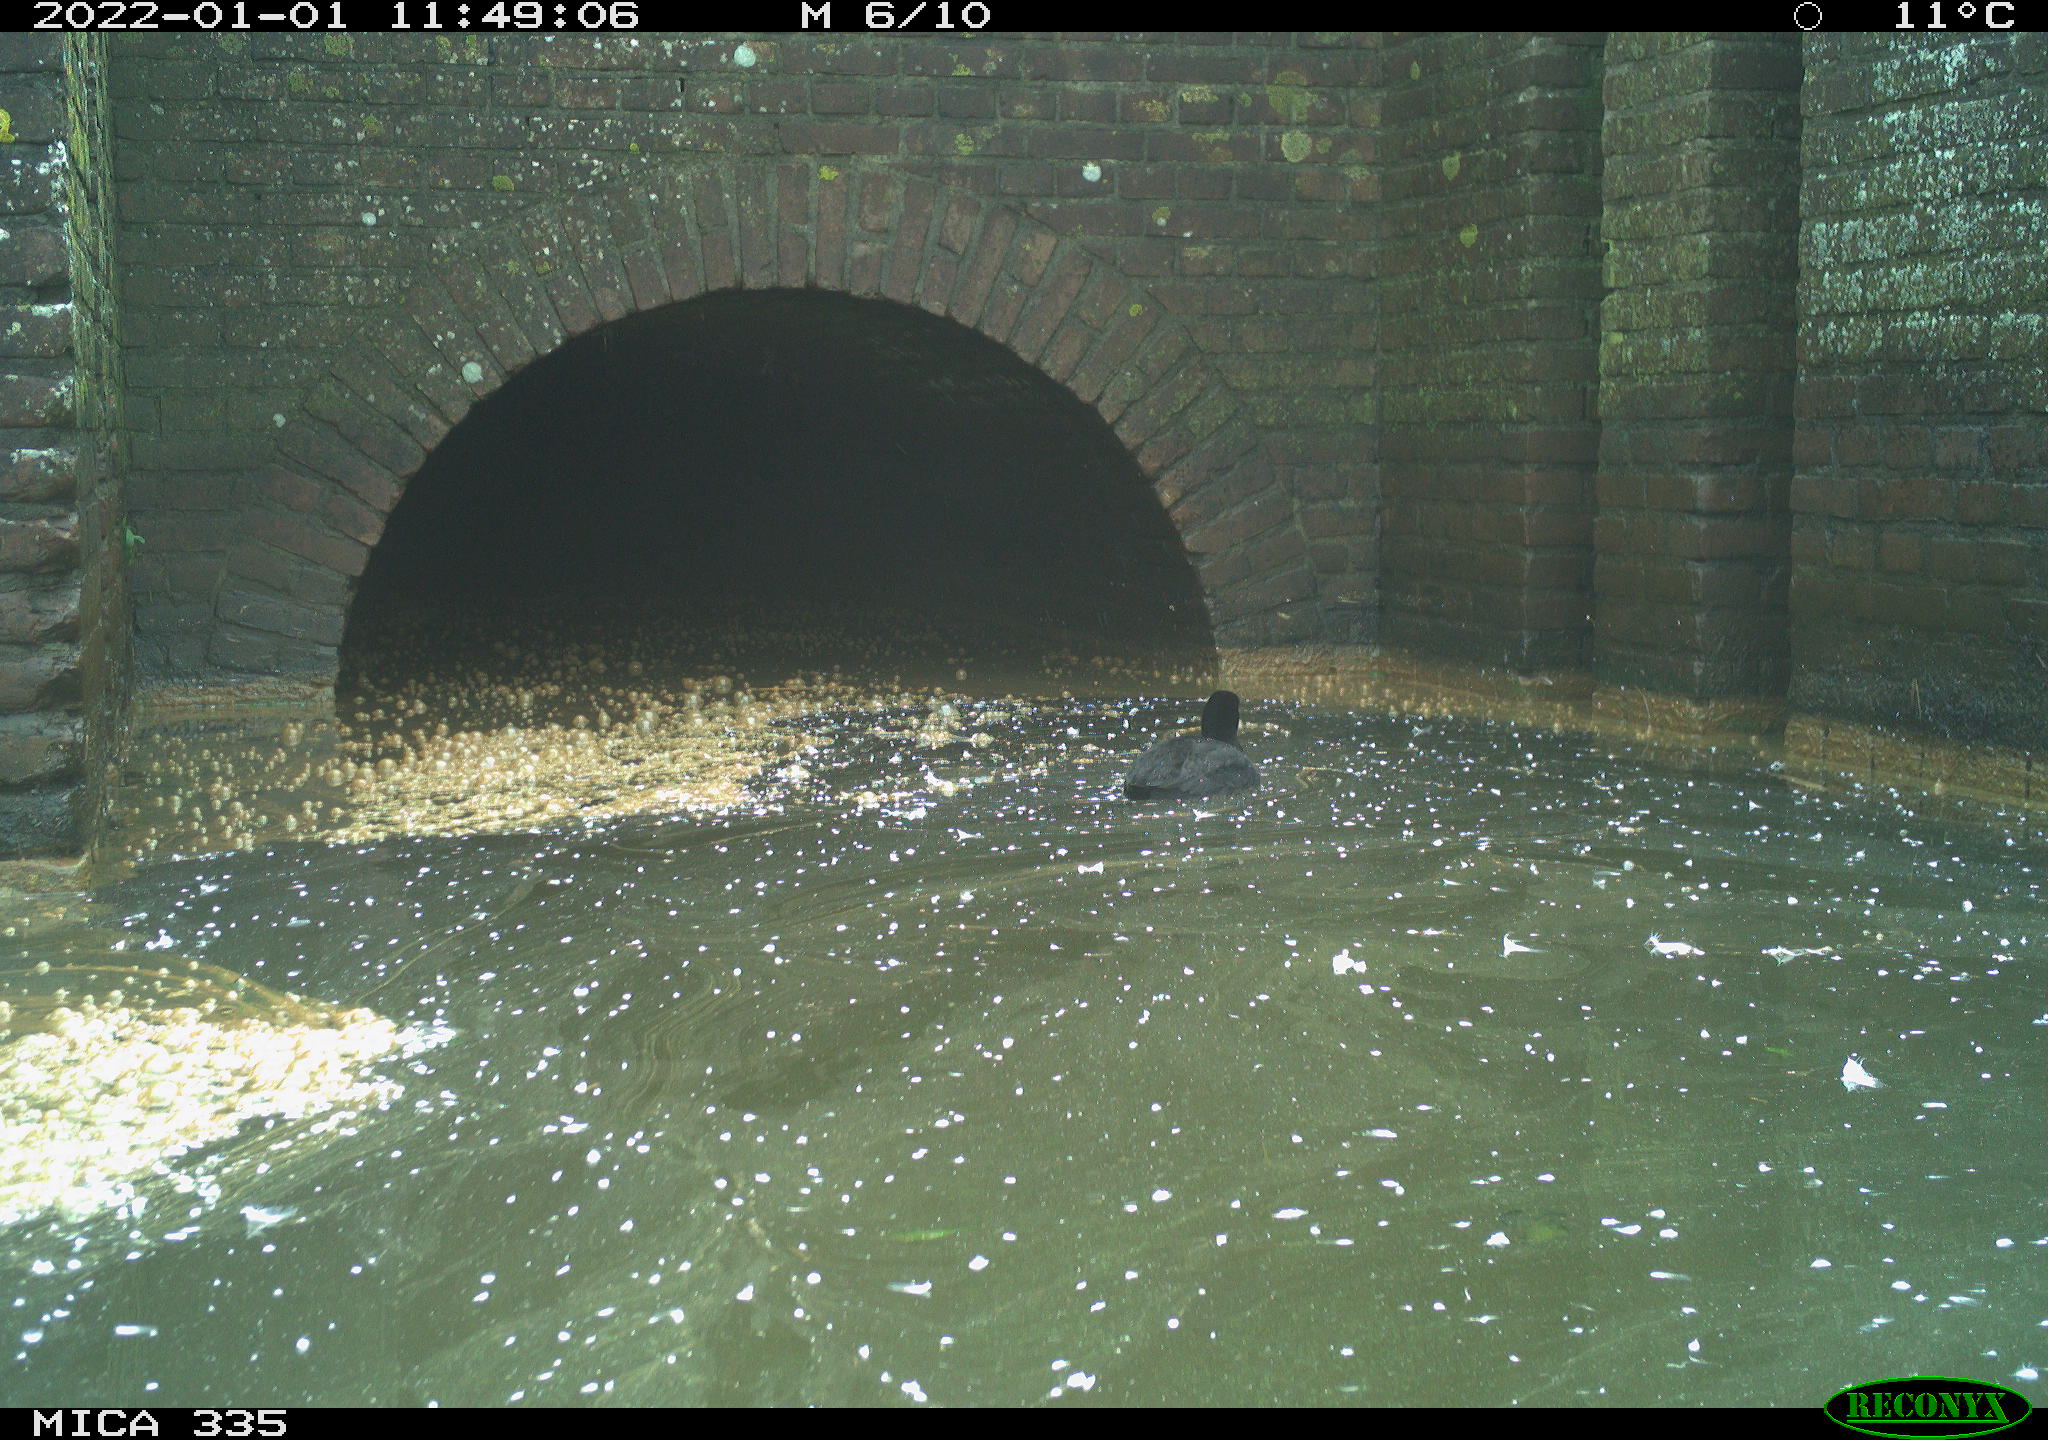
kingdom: Animalia
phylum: Chordata
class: Aves
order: Gruiformes
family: Rallidae
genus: Fulica
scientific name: Fulica atra
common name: Eurasian coot
